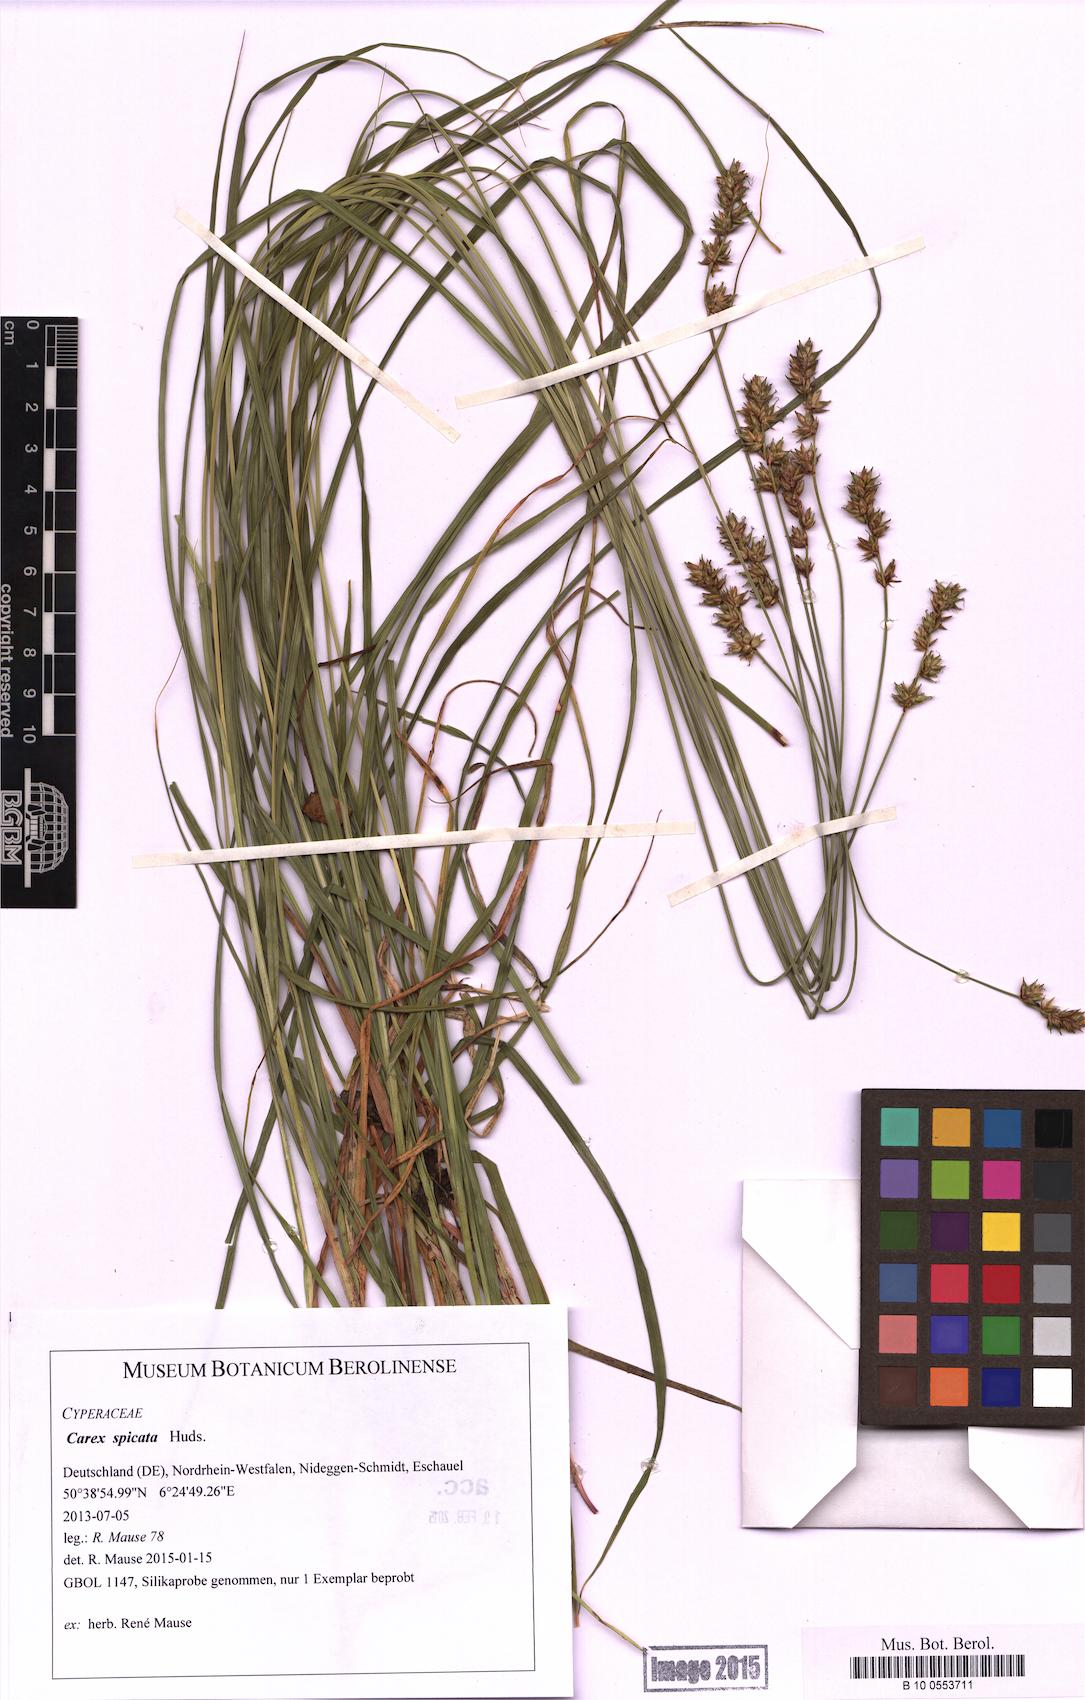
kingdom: Plantae
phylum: Tracheophyta
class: Liliopsida
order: Poales
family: Cyperaceae
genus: Carex
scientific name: Carex spicata
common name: Spiked sedge
